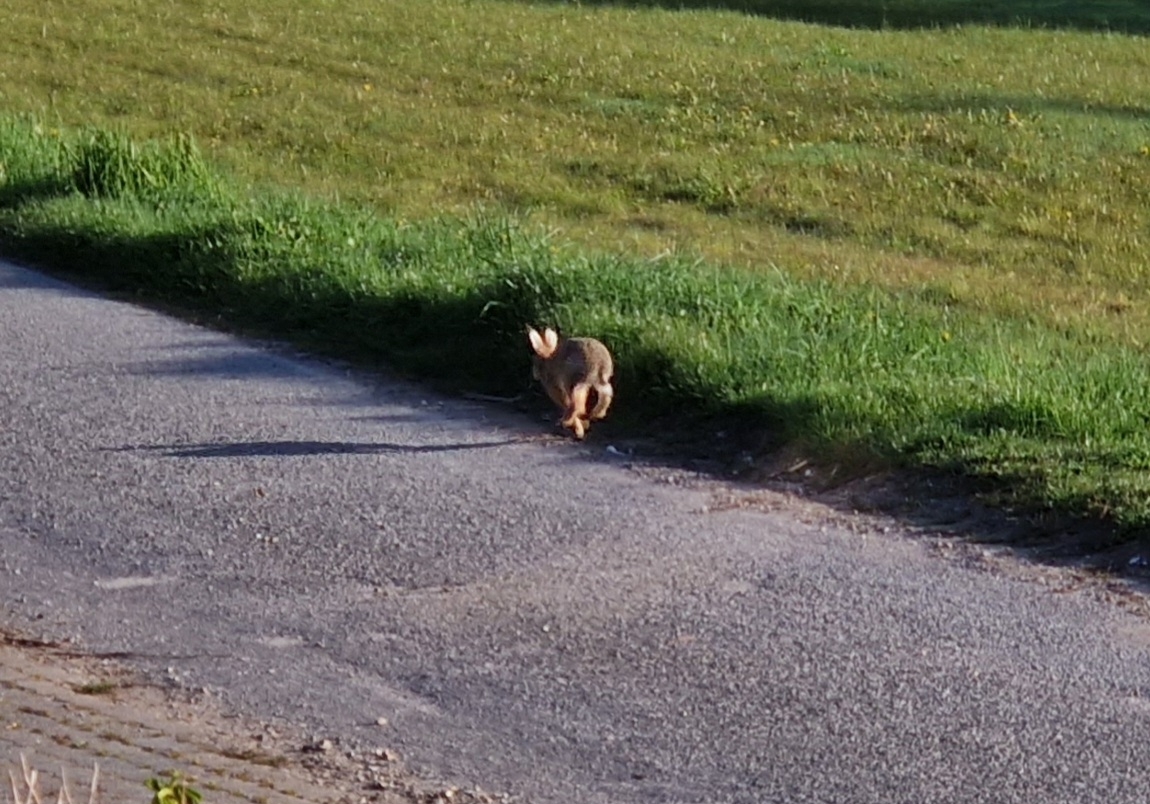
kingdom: Animalia
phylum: Chordata
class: Mammalia
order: Lagomorpha
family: Leporidae
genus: Lepus
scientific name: Lepus europaeus
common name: Hare
